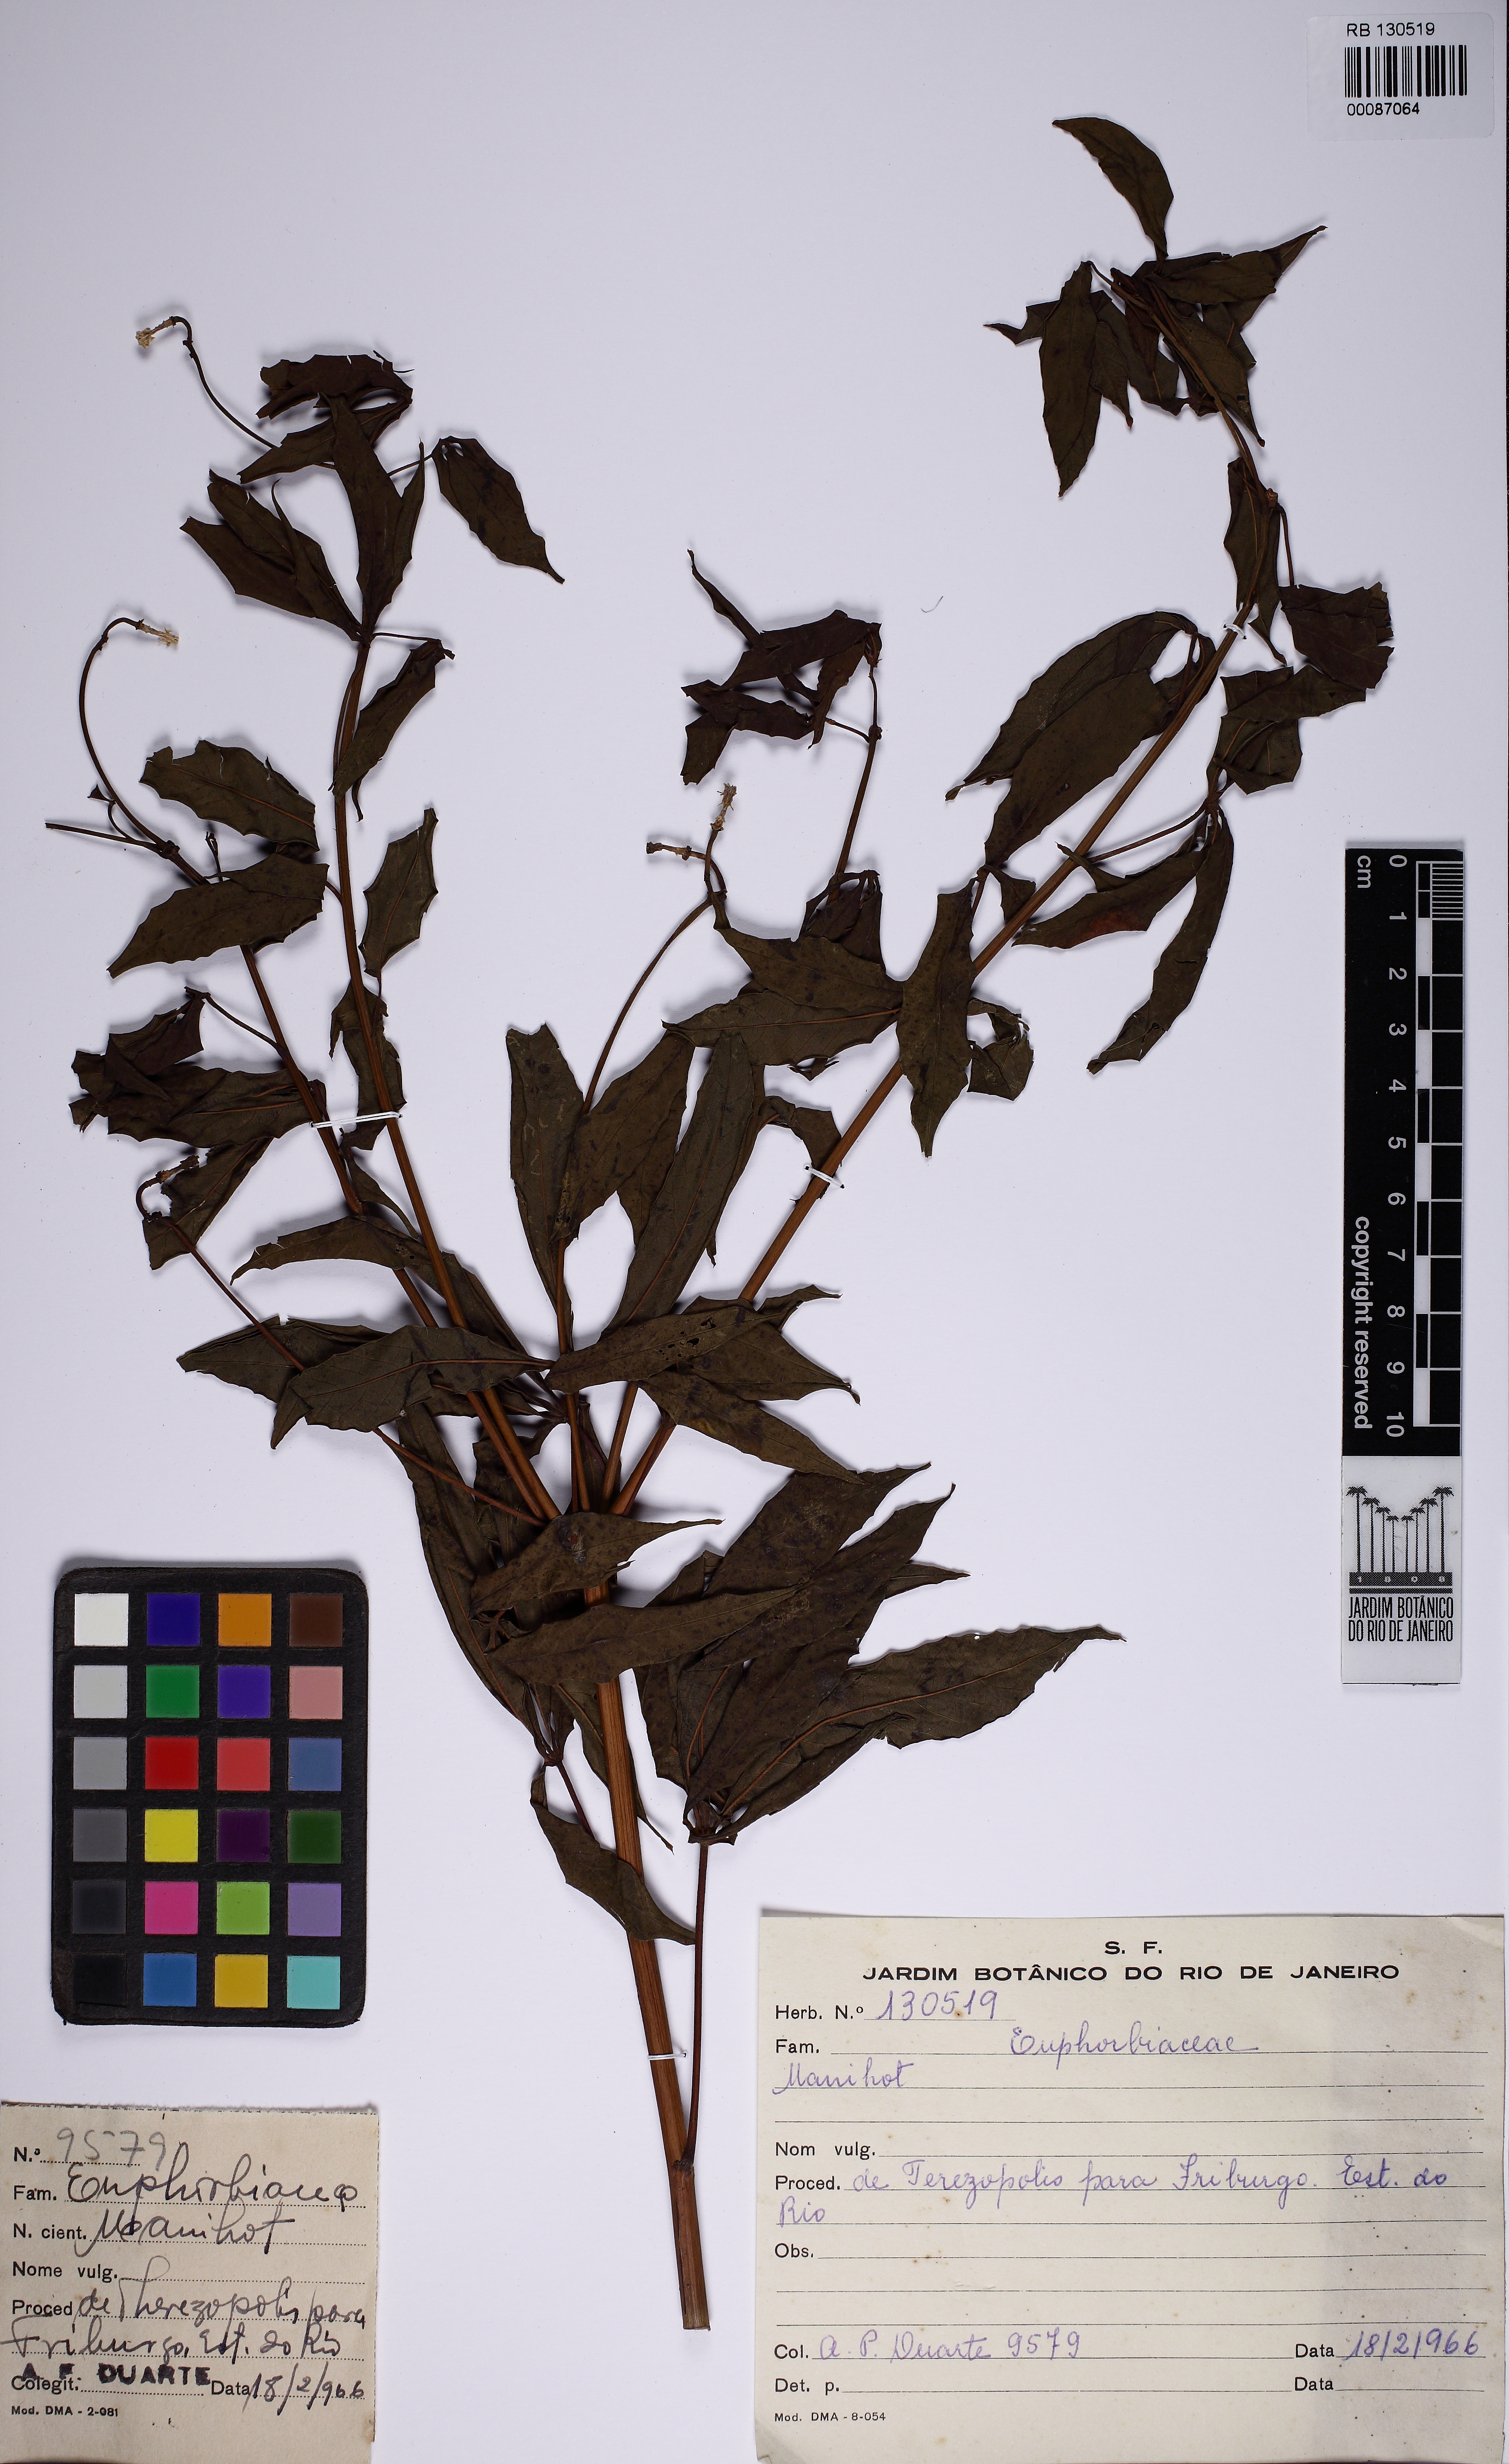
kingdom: Plantae
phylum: Tracheophyta
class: Magnoliopsida
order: Malpighiales
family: Euphorbiaceae
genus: Manihot
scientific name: Manihot palmata
